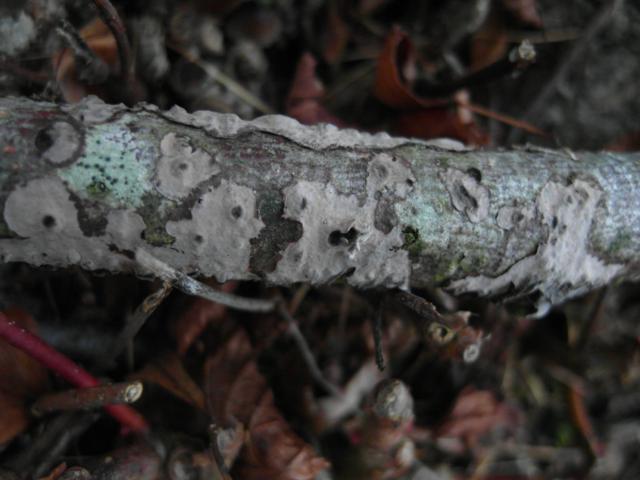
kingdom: Fungi
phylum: Basidiomycota
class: Agaricomycetes
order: Russulales
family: Peniophoraceae
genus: Peniophora
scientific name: Peniophora rufomarginata
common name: linde-voksskind
